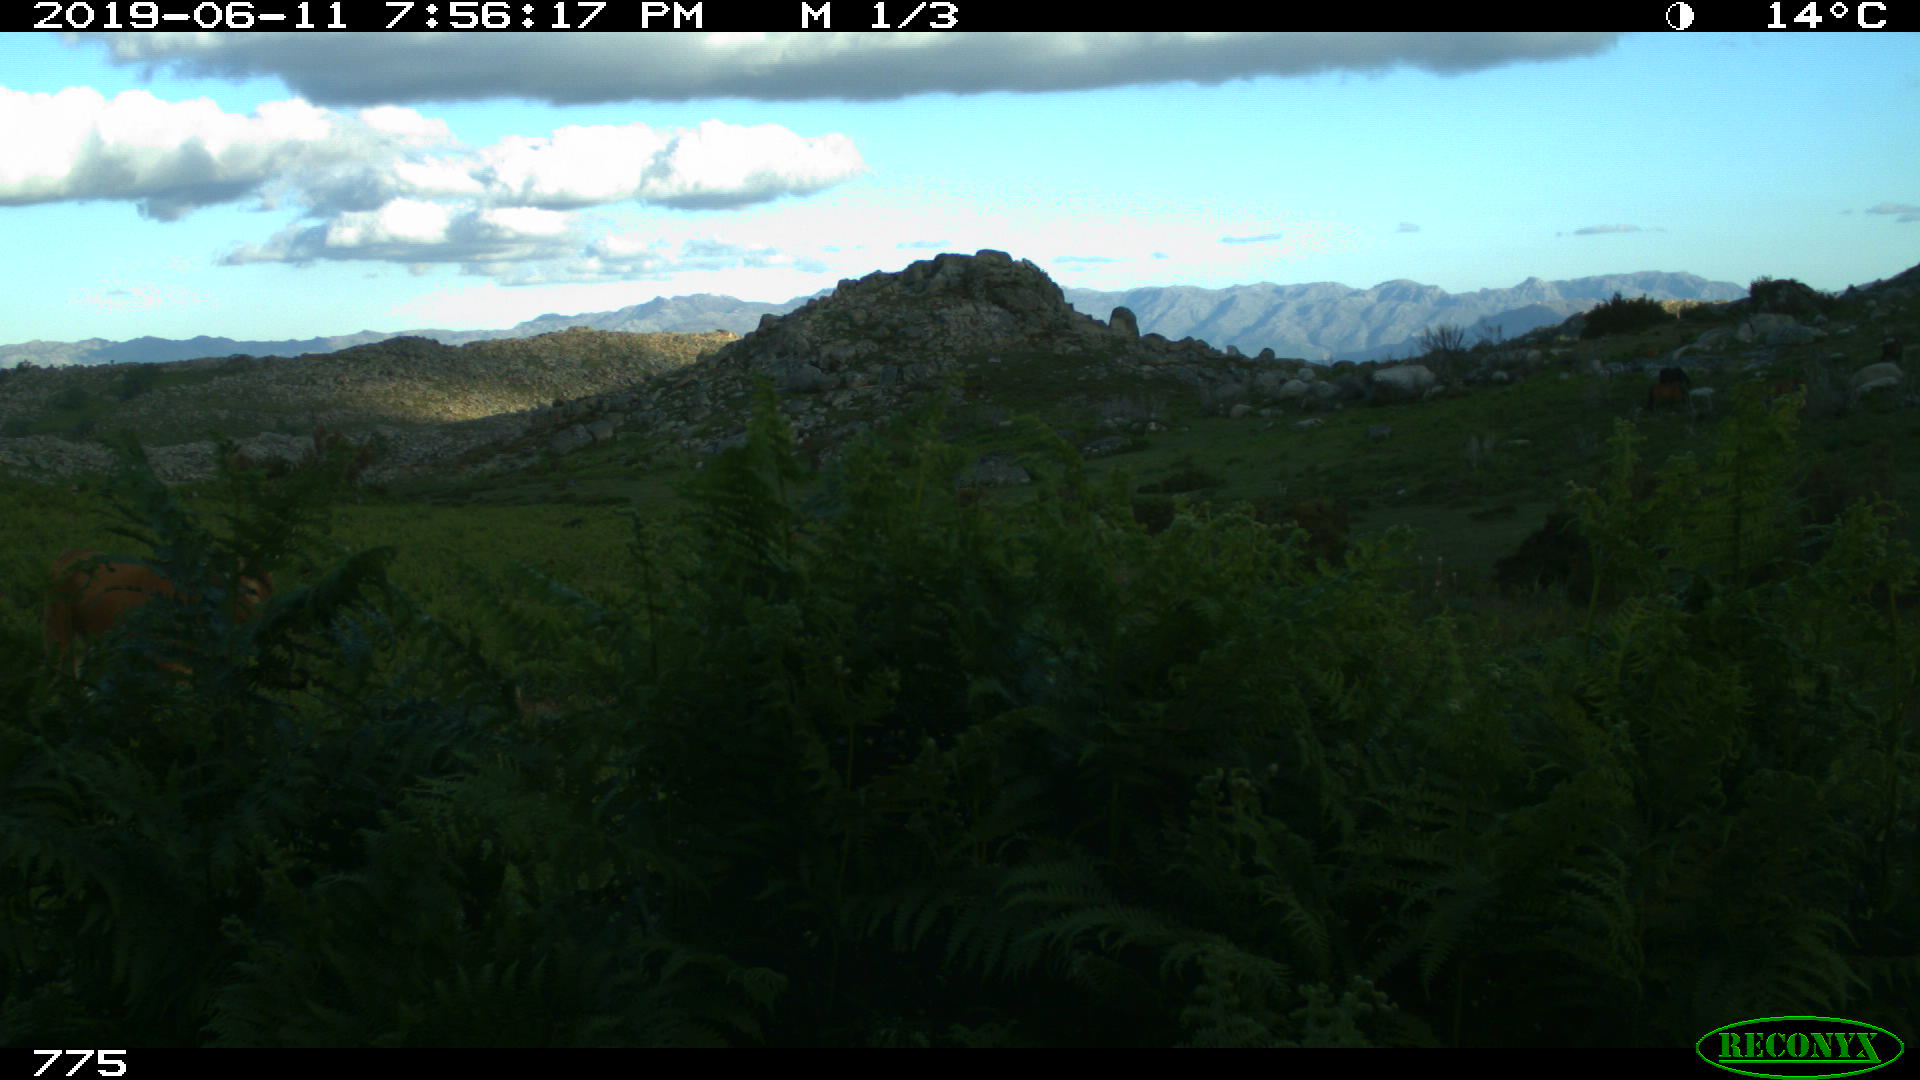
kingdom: Animalia
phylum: Chordata
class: Mammalia
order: Artiodactyla
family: Bovidae
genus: Bos
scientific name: Bos taurus
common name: Domesticated cattle
